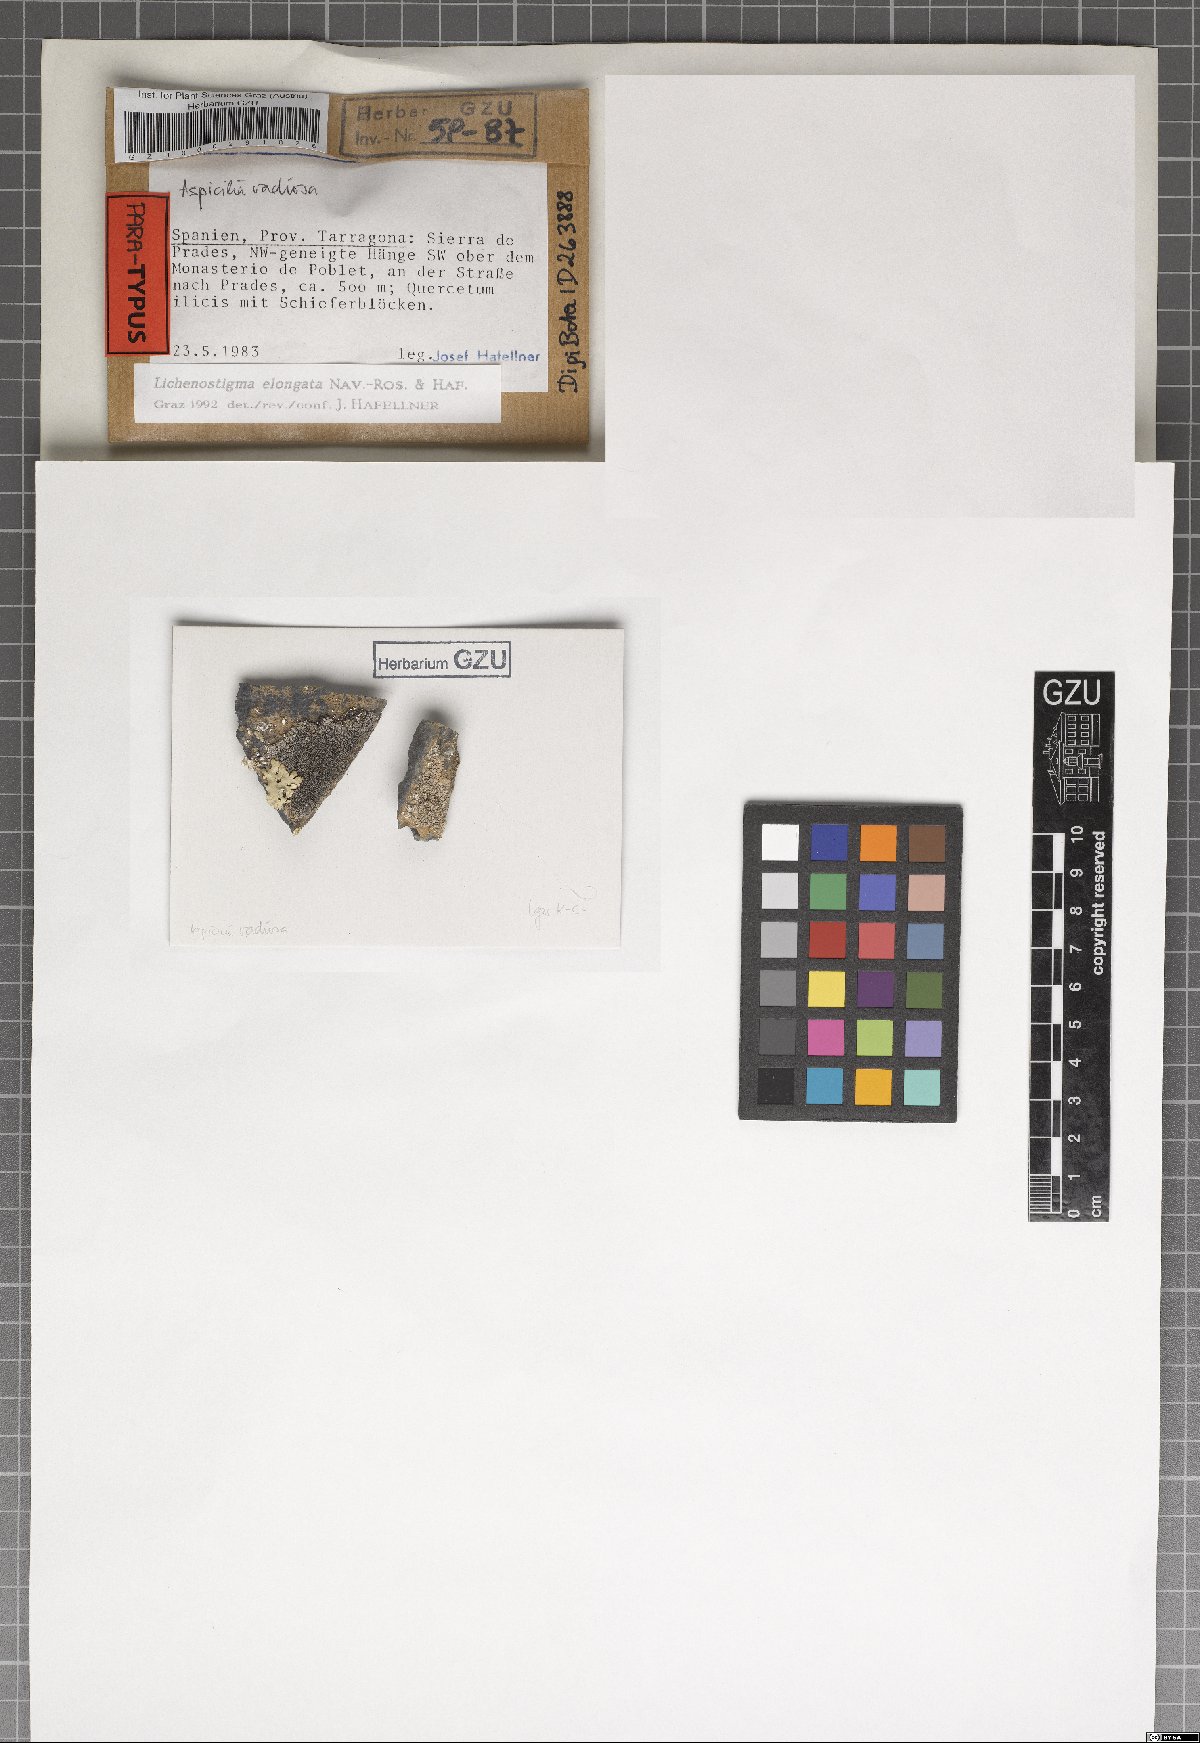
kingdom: Fungi
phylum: Ascomycota
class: Arthoniomycetes
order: Lichenostigmatales
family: Phaeococcomycetaceae
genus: Lichenostigma
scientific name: Lichenostigma elongatum
